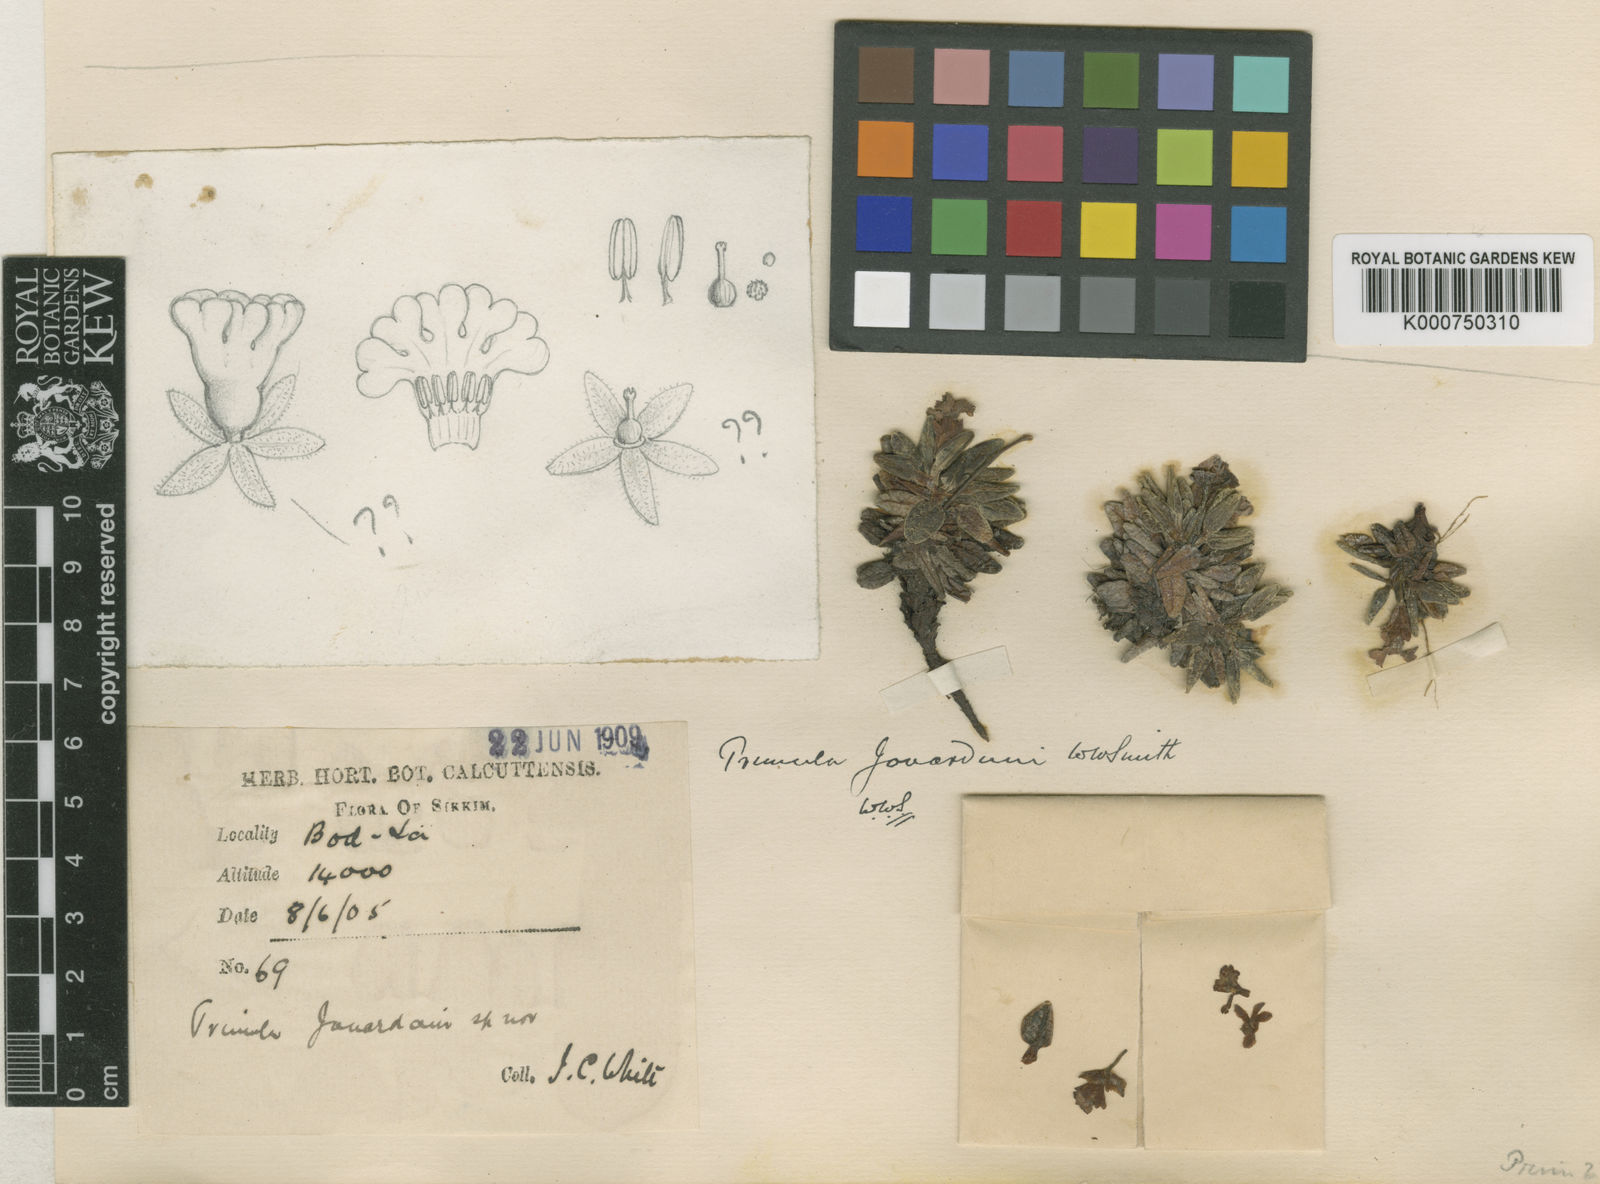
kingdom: Plantae
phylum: Tracheophyta
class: Magnoliopsida
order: Ericales
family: Primulaceae
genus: Primula
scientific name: Primula dryadifolia
